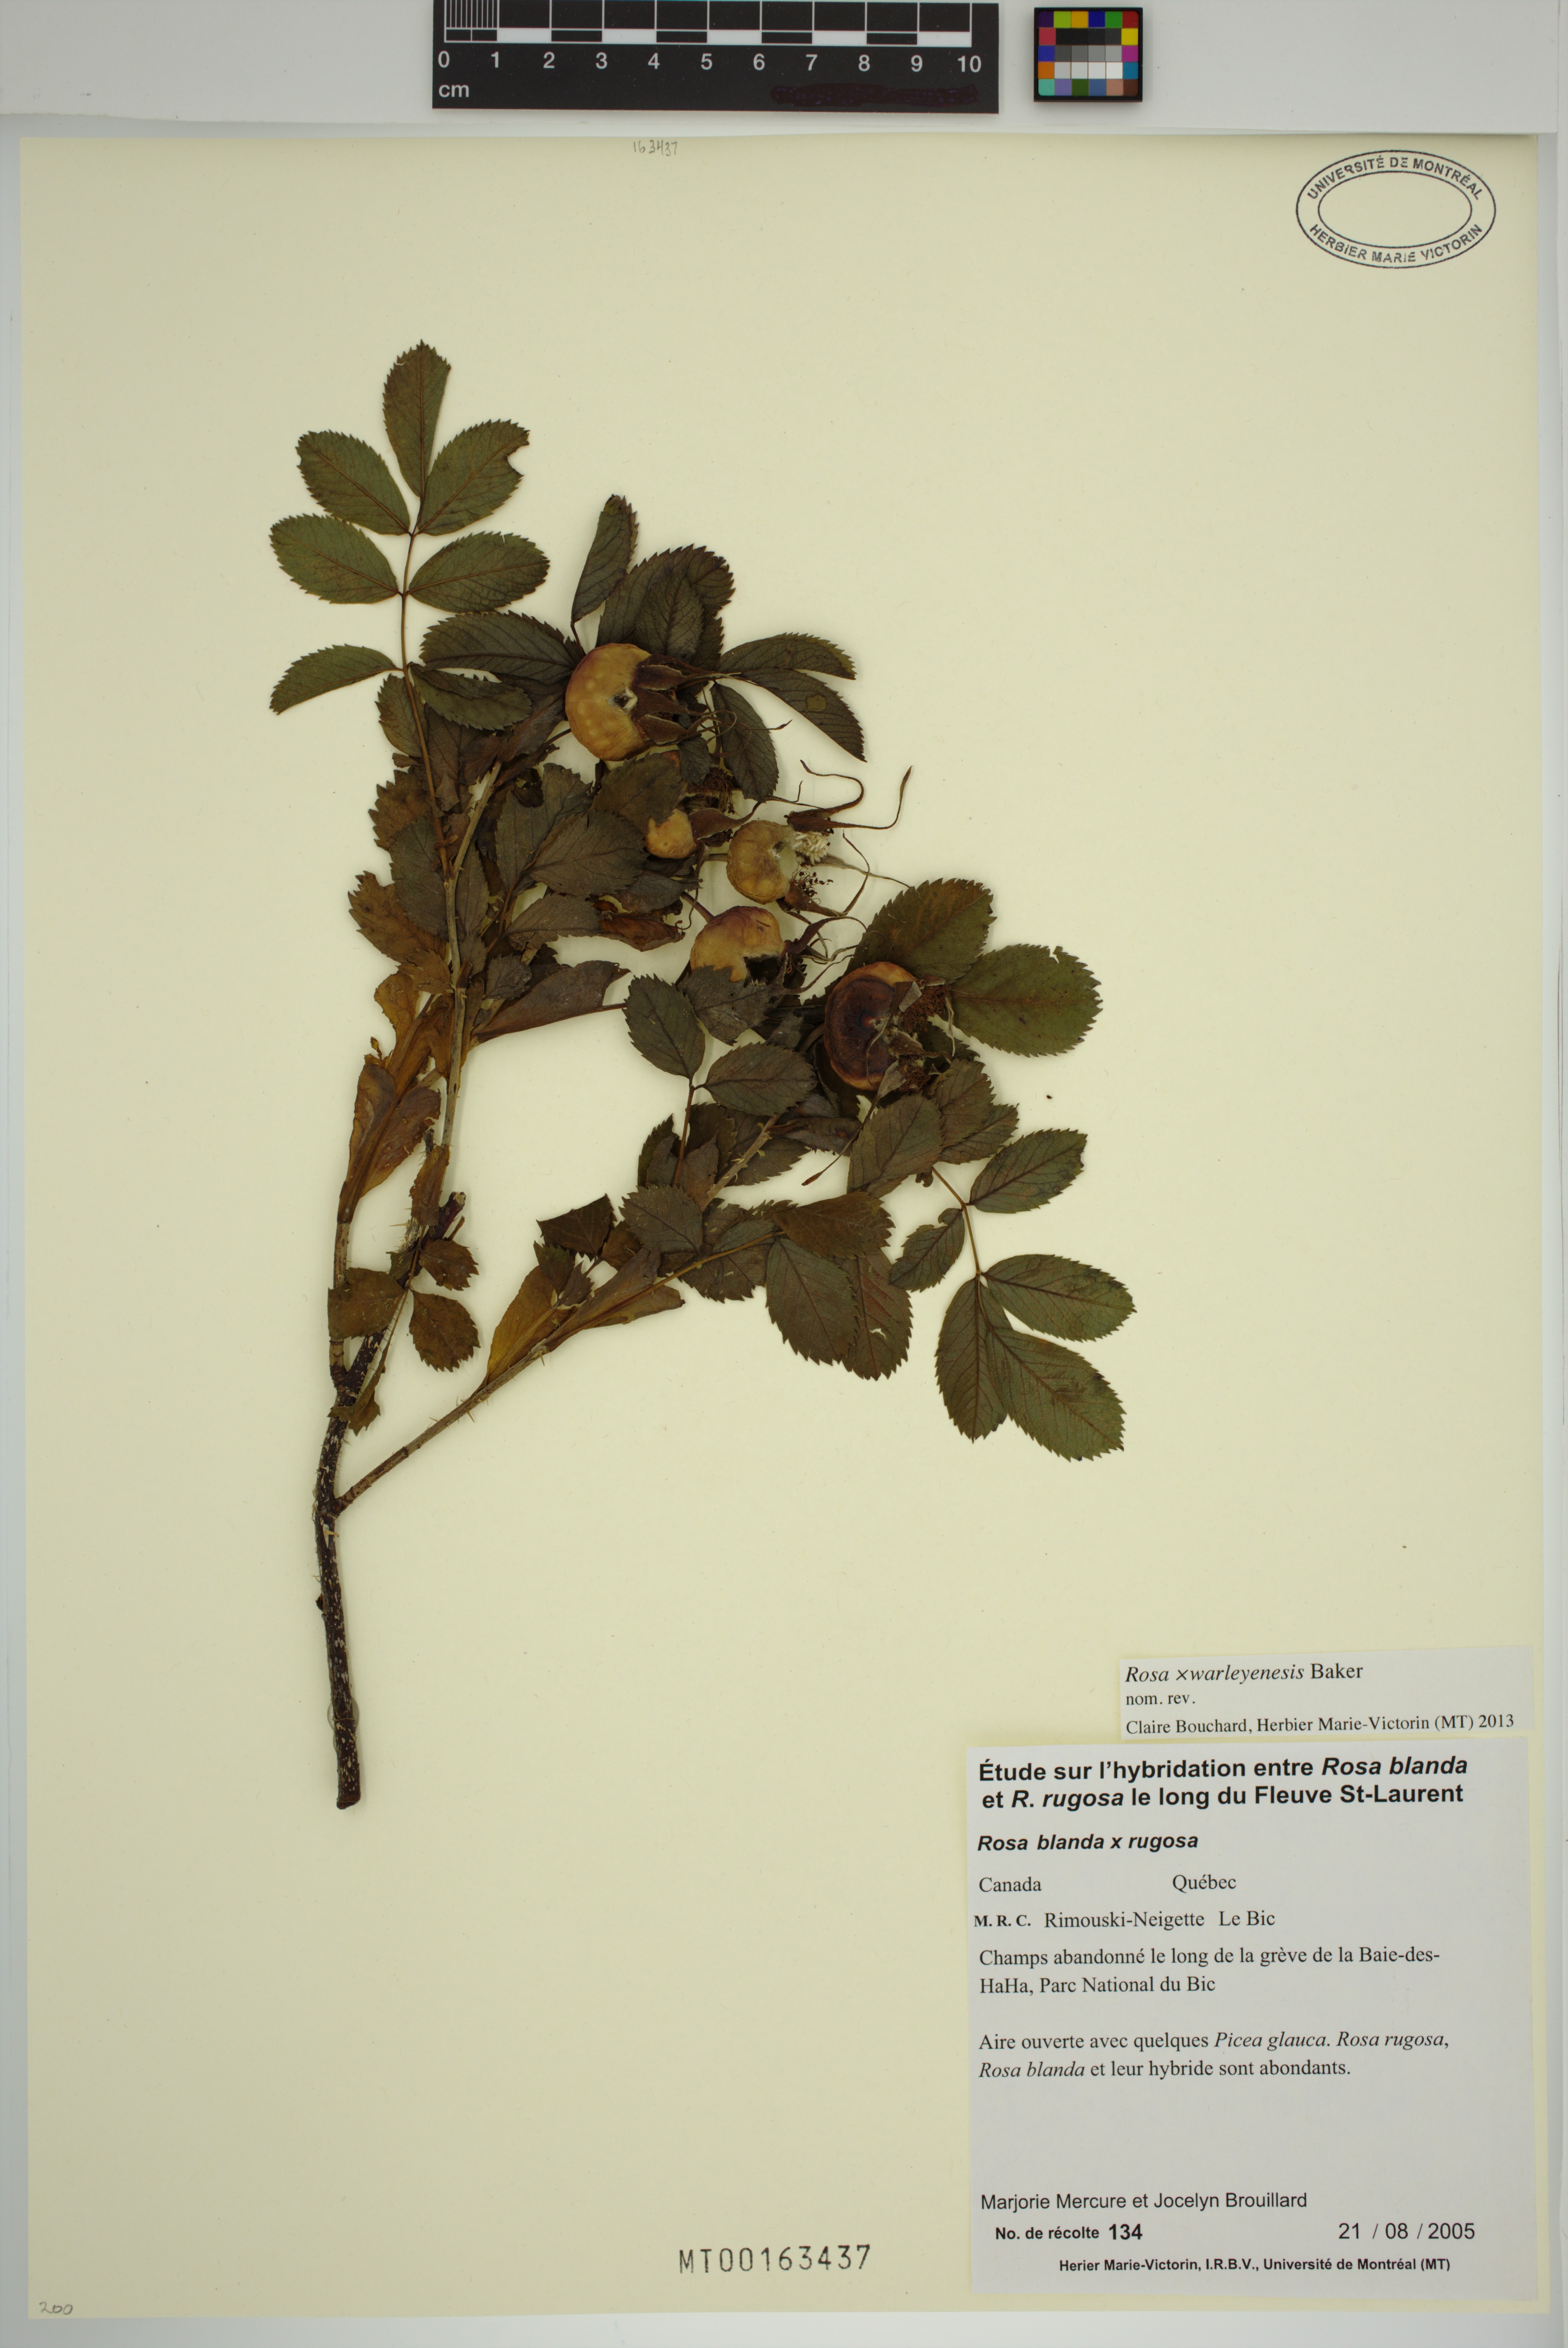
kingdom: Plantae
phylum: Tracheophyta
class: Magnoliopsida
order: Rosales
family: Rosaceae
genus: Rosa
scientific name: Rosa warleyensis
